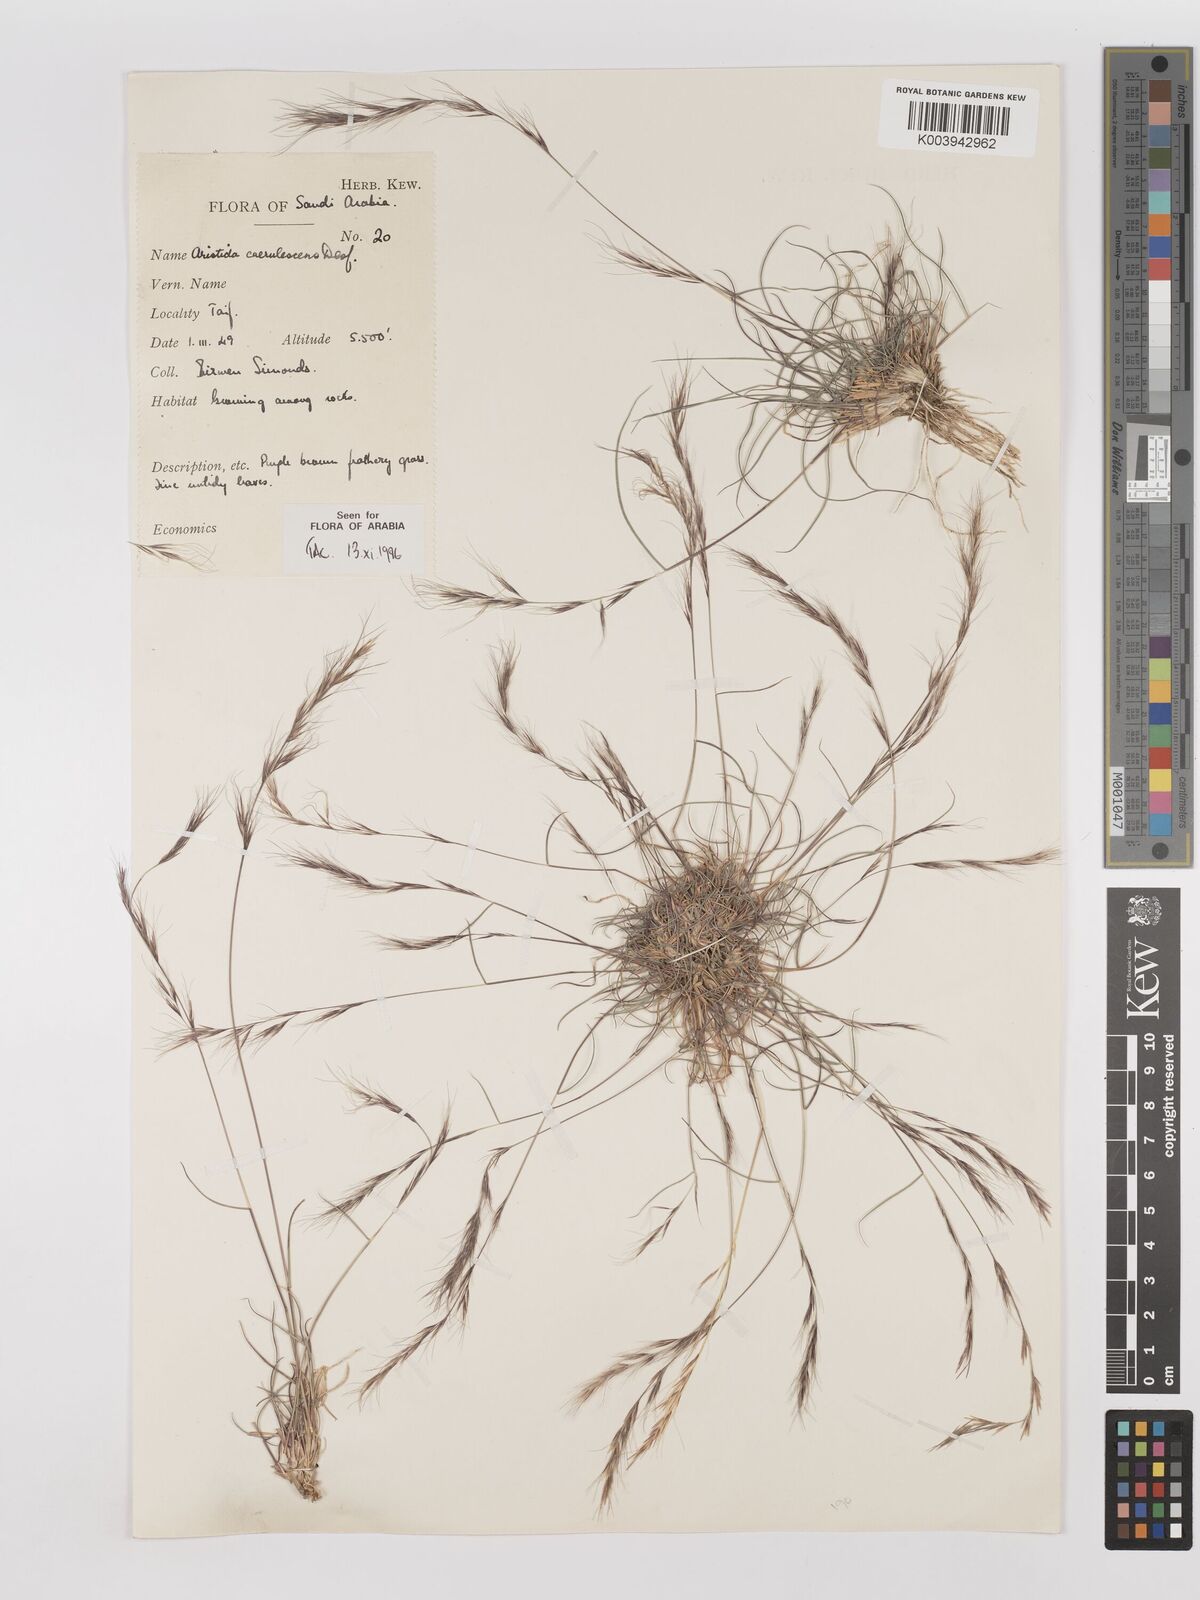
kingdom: Plantae
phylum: Tracheophyta
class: Liliopsida
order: Poales
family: Poaceae
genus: Aristida
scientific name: Aristida adscensionis
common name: Sixweeks threeawn
